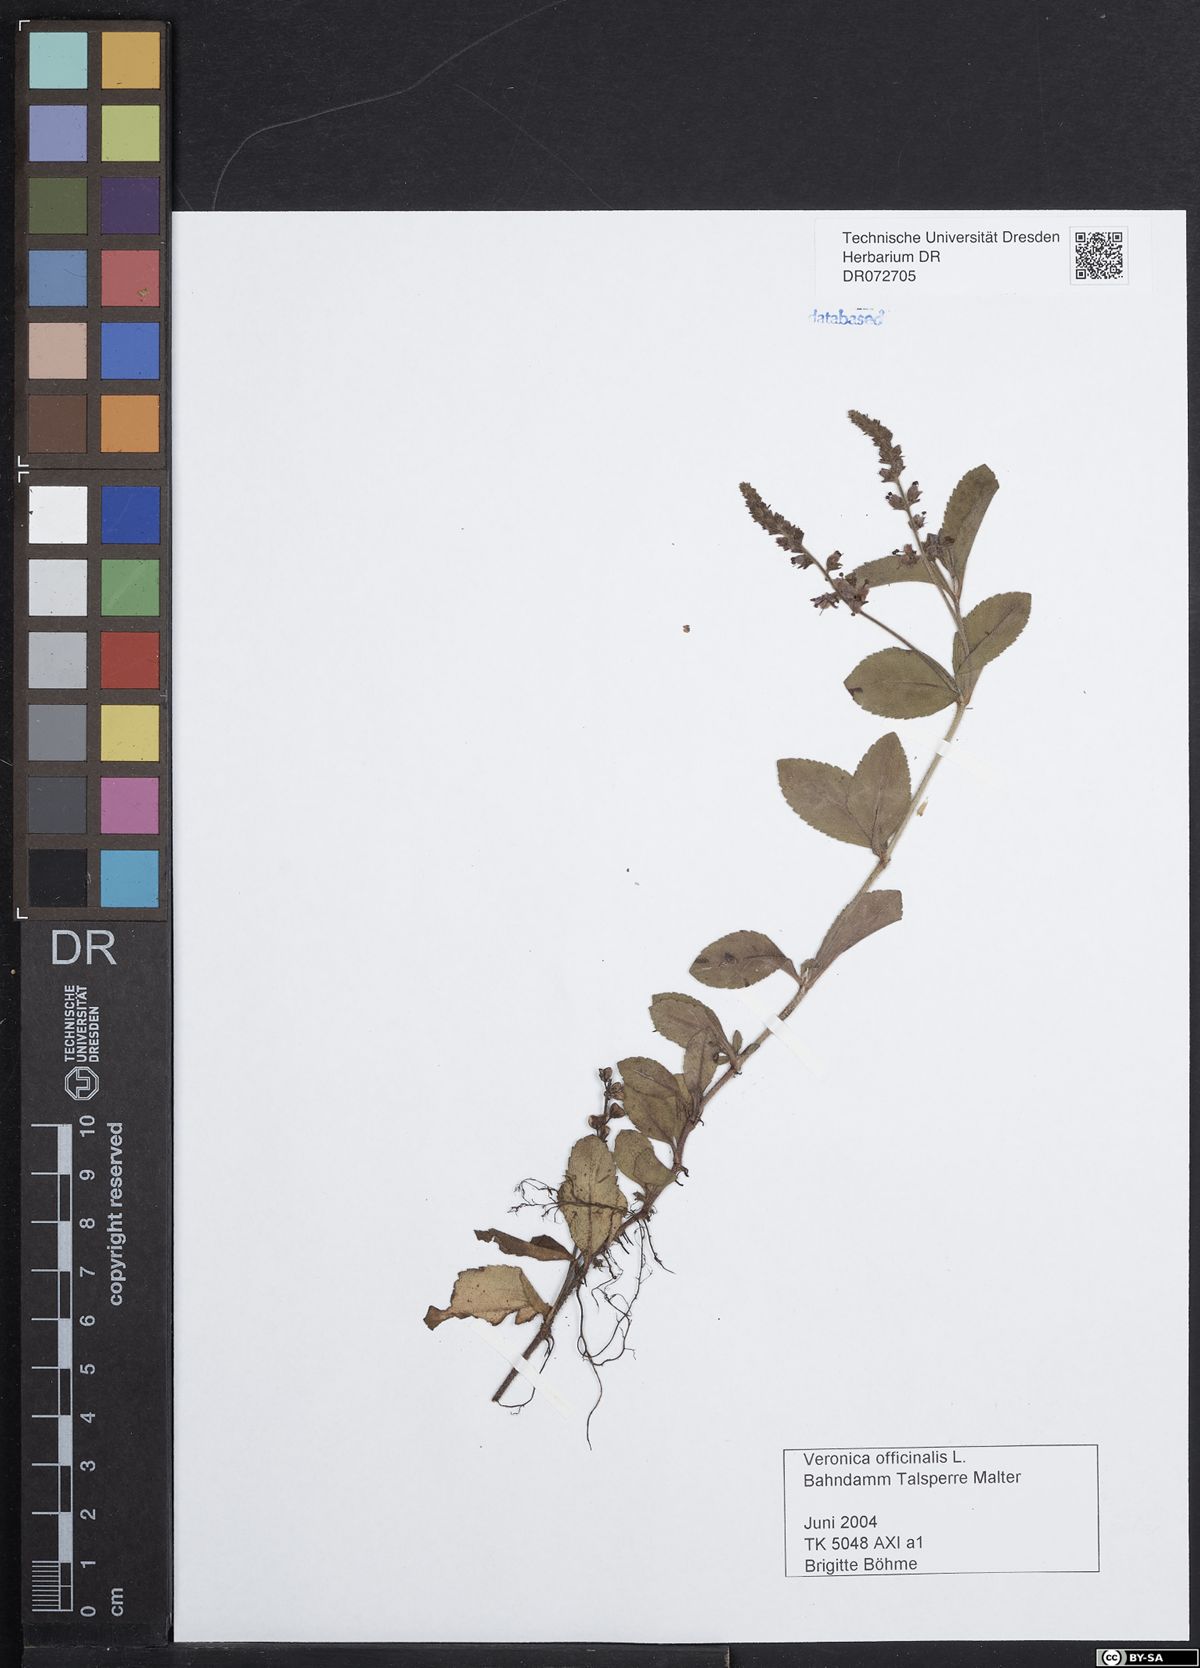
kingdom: Plantae
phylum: Tracheophyta
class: Magnoliopsida
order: Lamiales
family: Plantaginaceae
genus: Veronica
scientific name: Veronica officinalis
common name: Common speedwell
